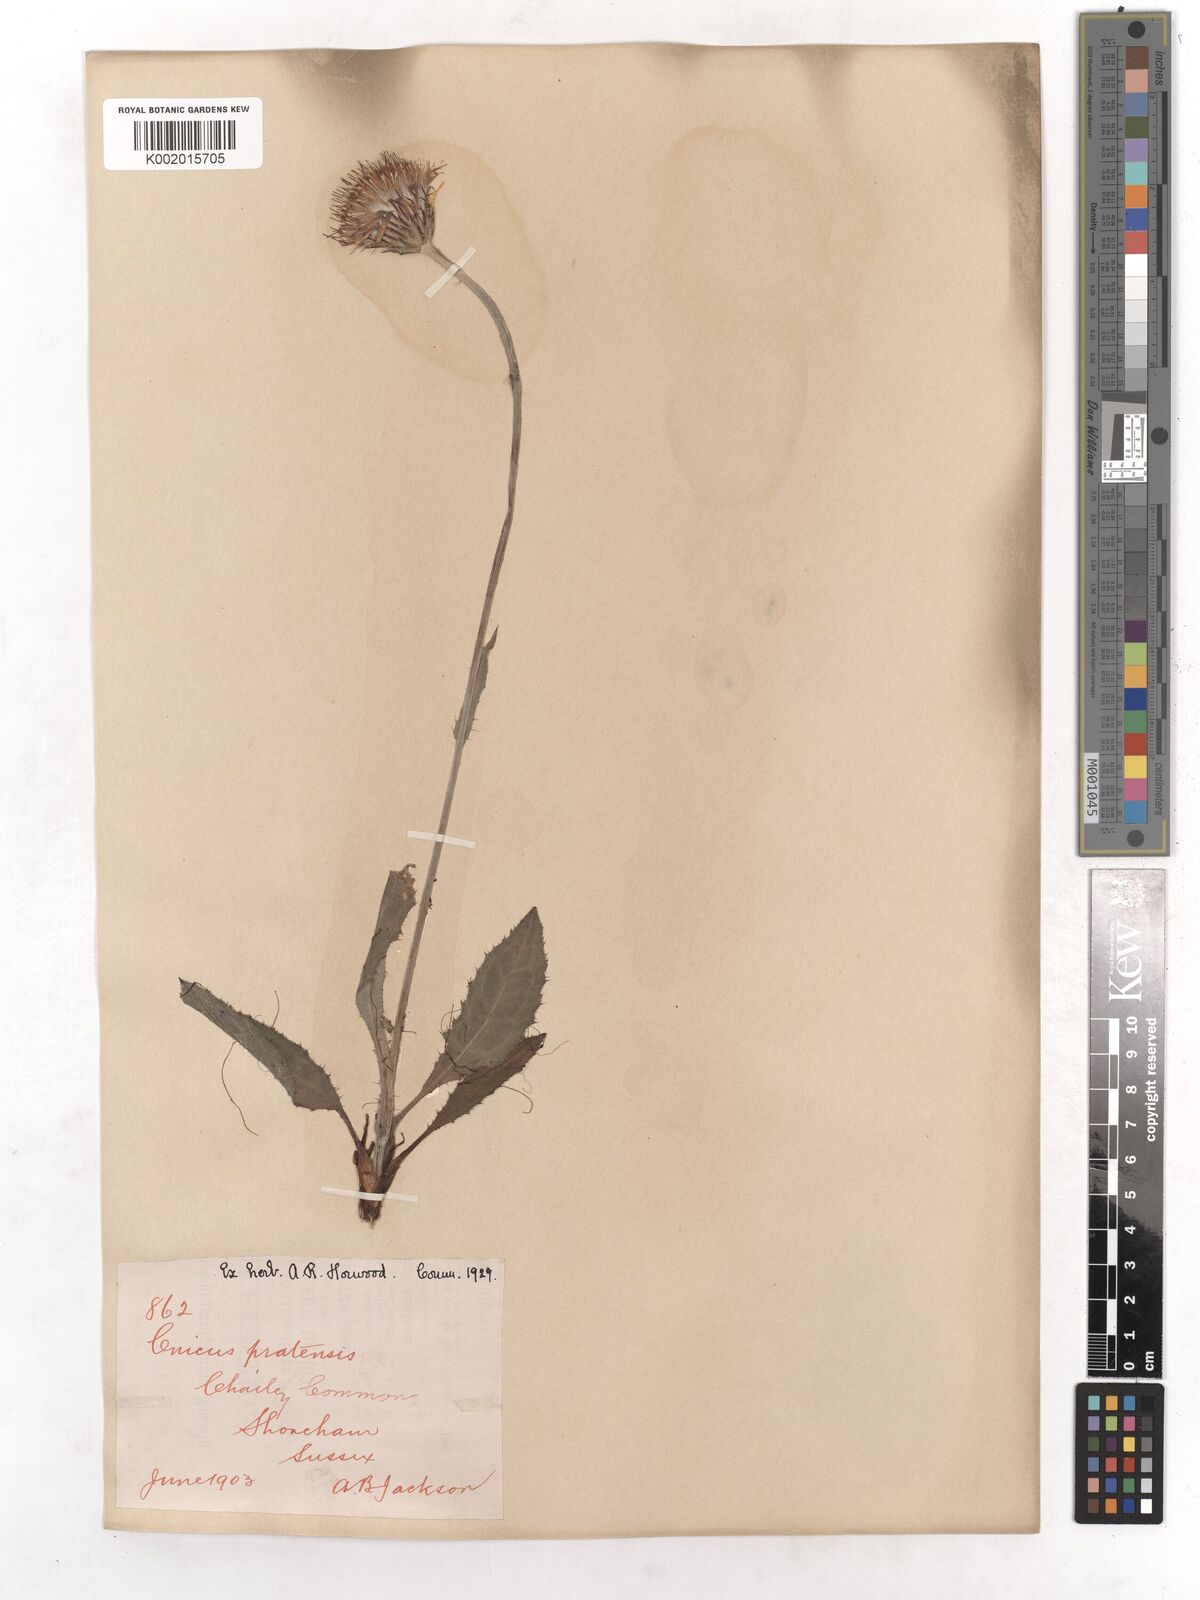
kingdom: Plantae
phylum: Tracheophyta
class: Magnoliopsida
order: Asterales
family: Asteraceae
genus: Cirsium
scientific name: Cirsium dissectum
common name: Meadow thistle
